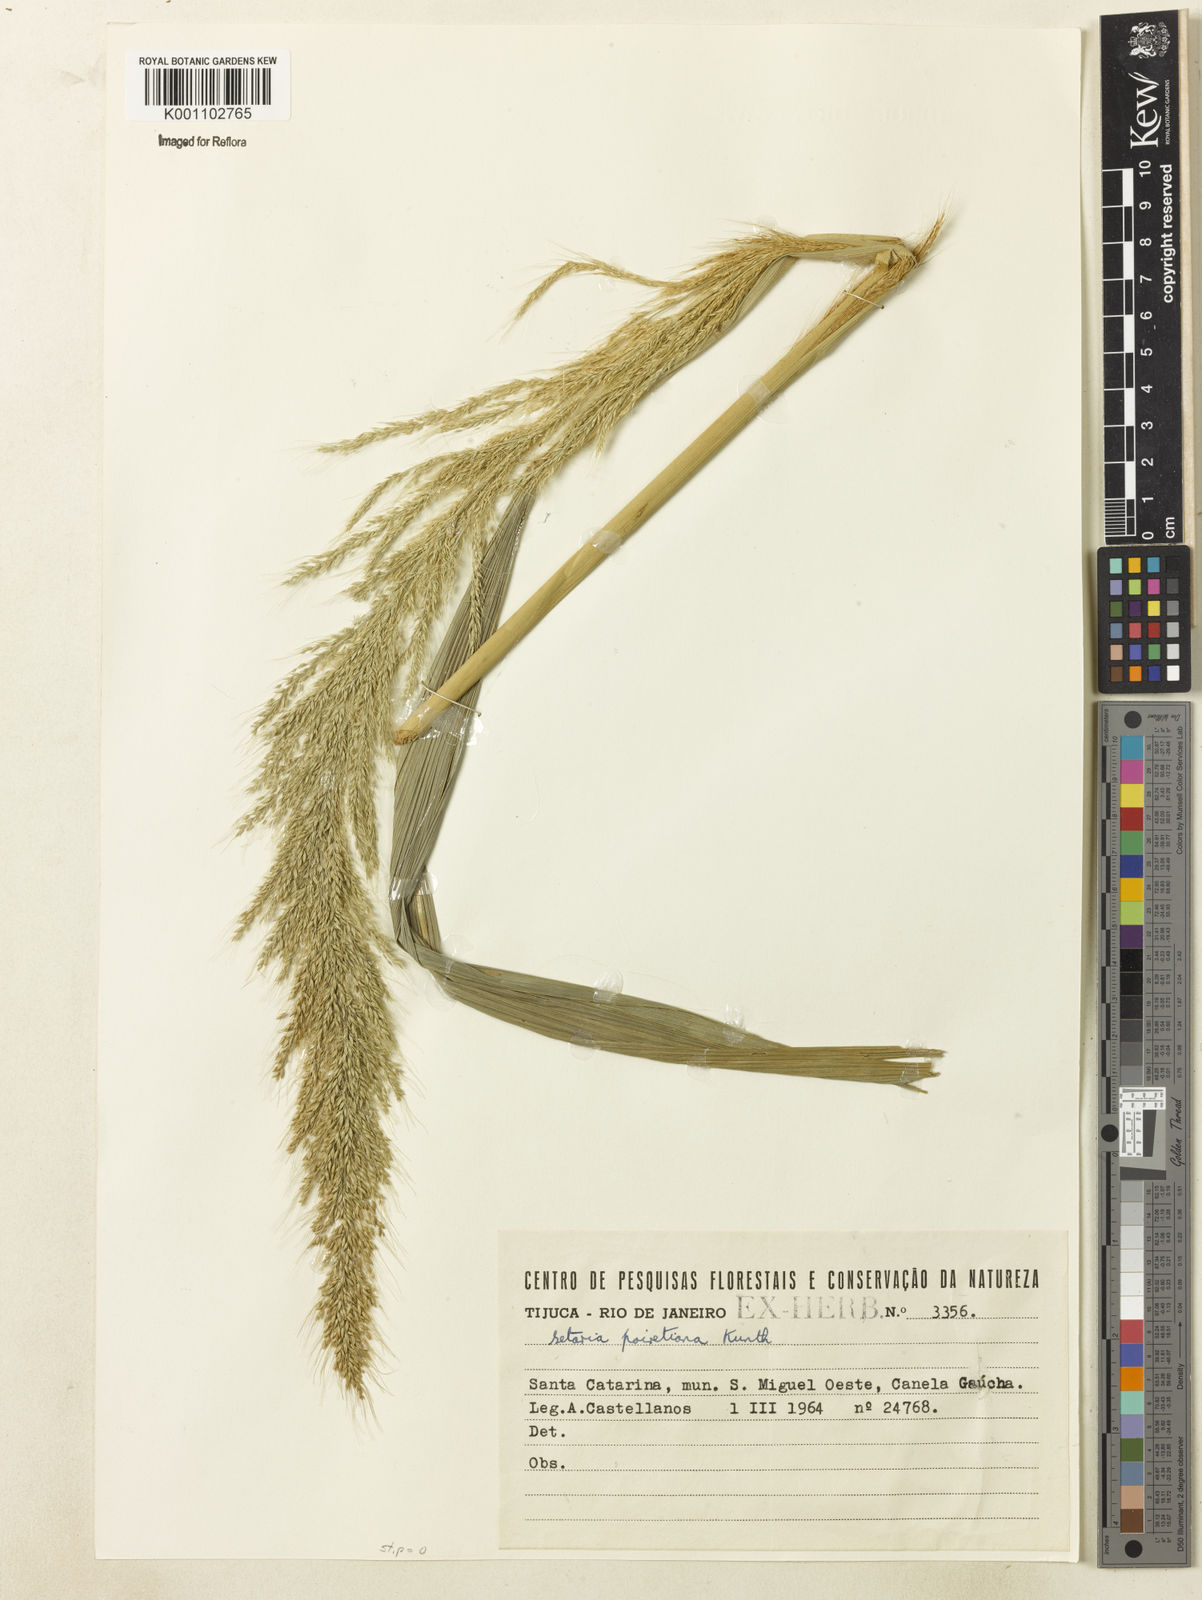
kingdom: Plantae
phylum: Tracheophyta
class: Liliopsida
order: Poales
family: Poaceae
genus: Setaria
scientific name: Setaria
